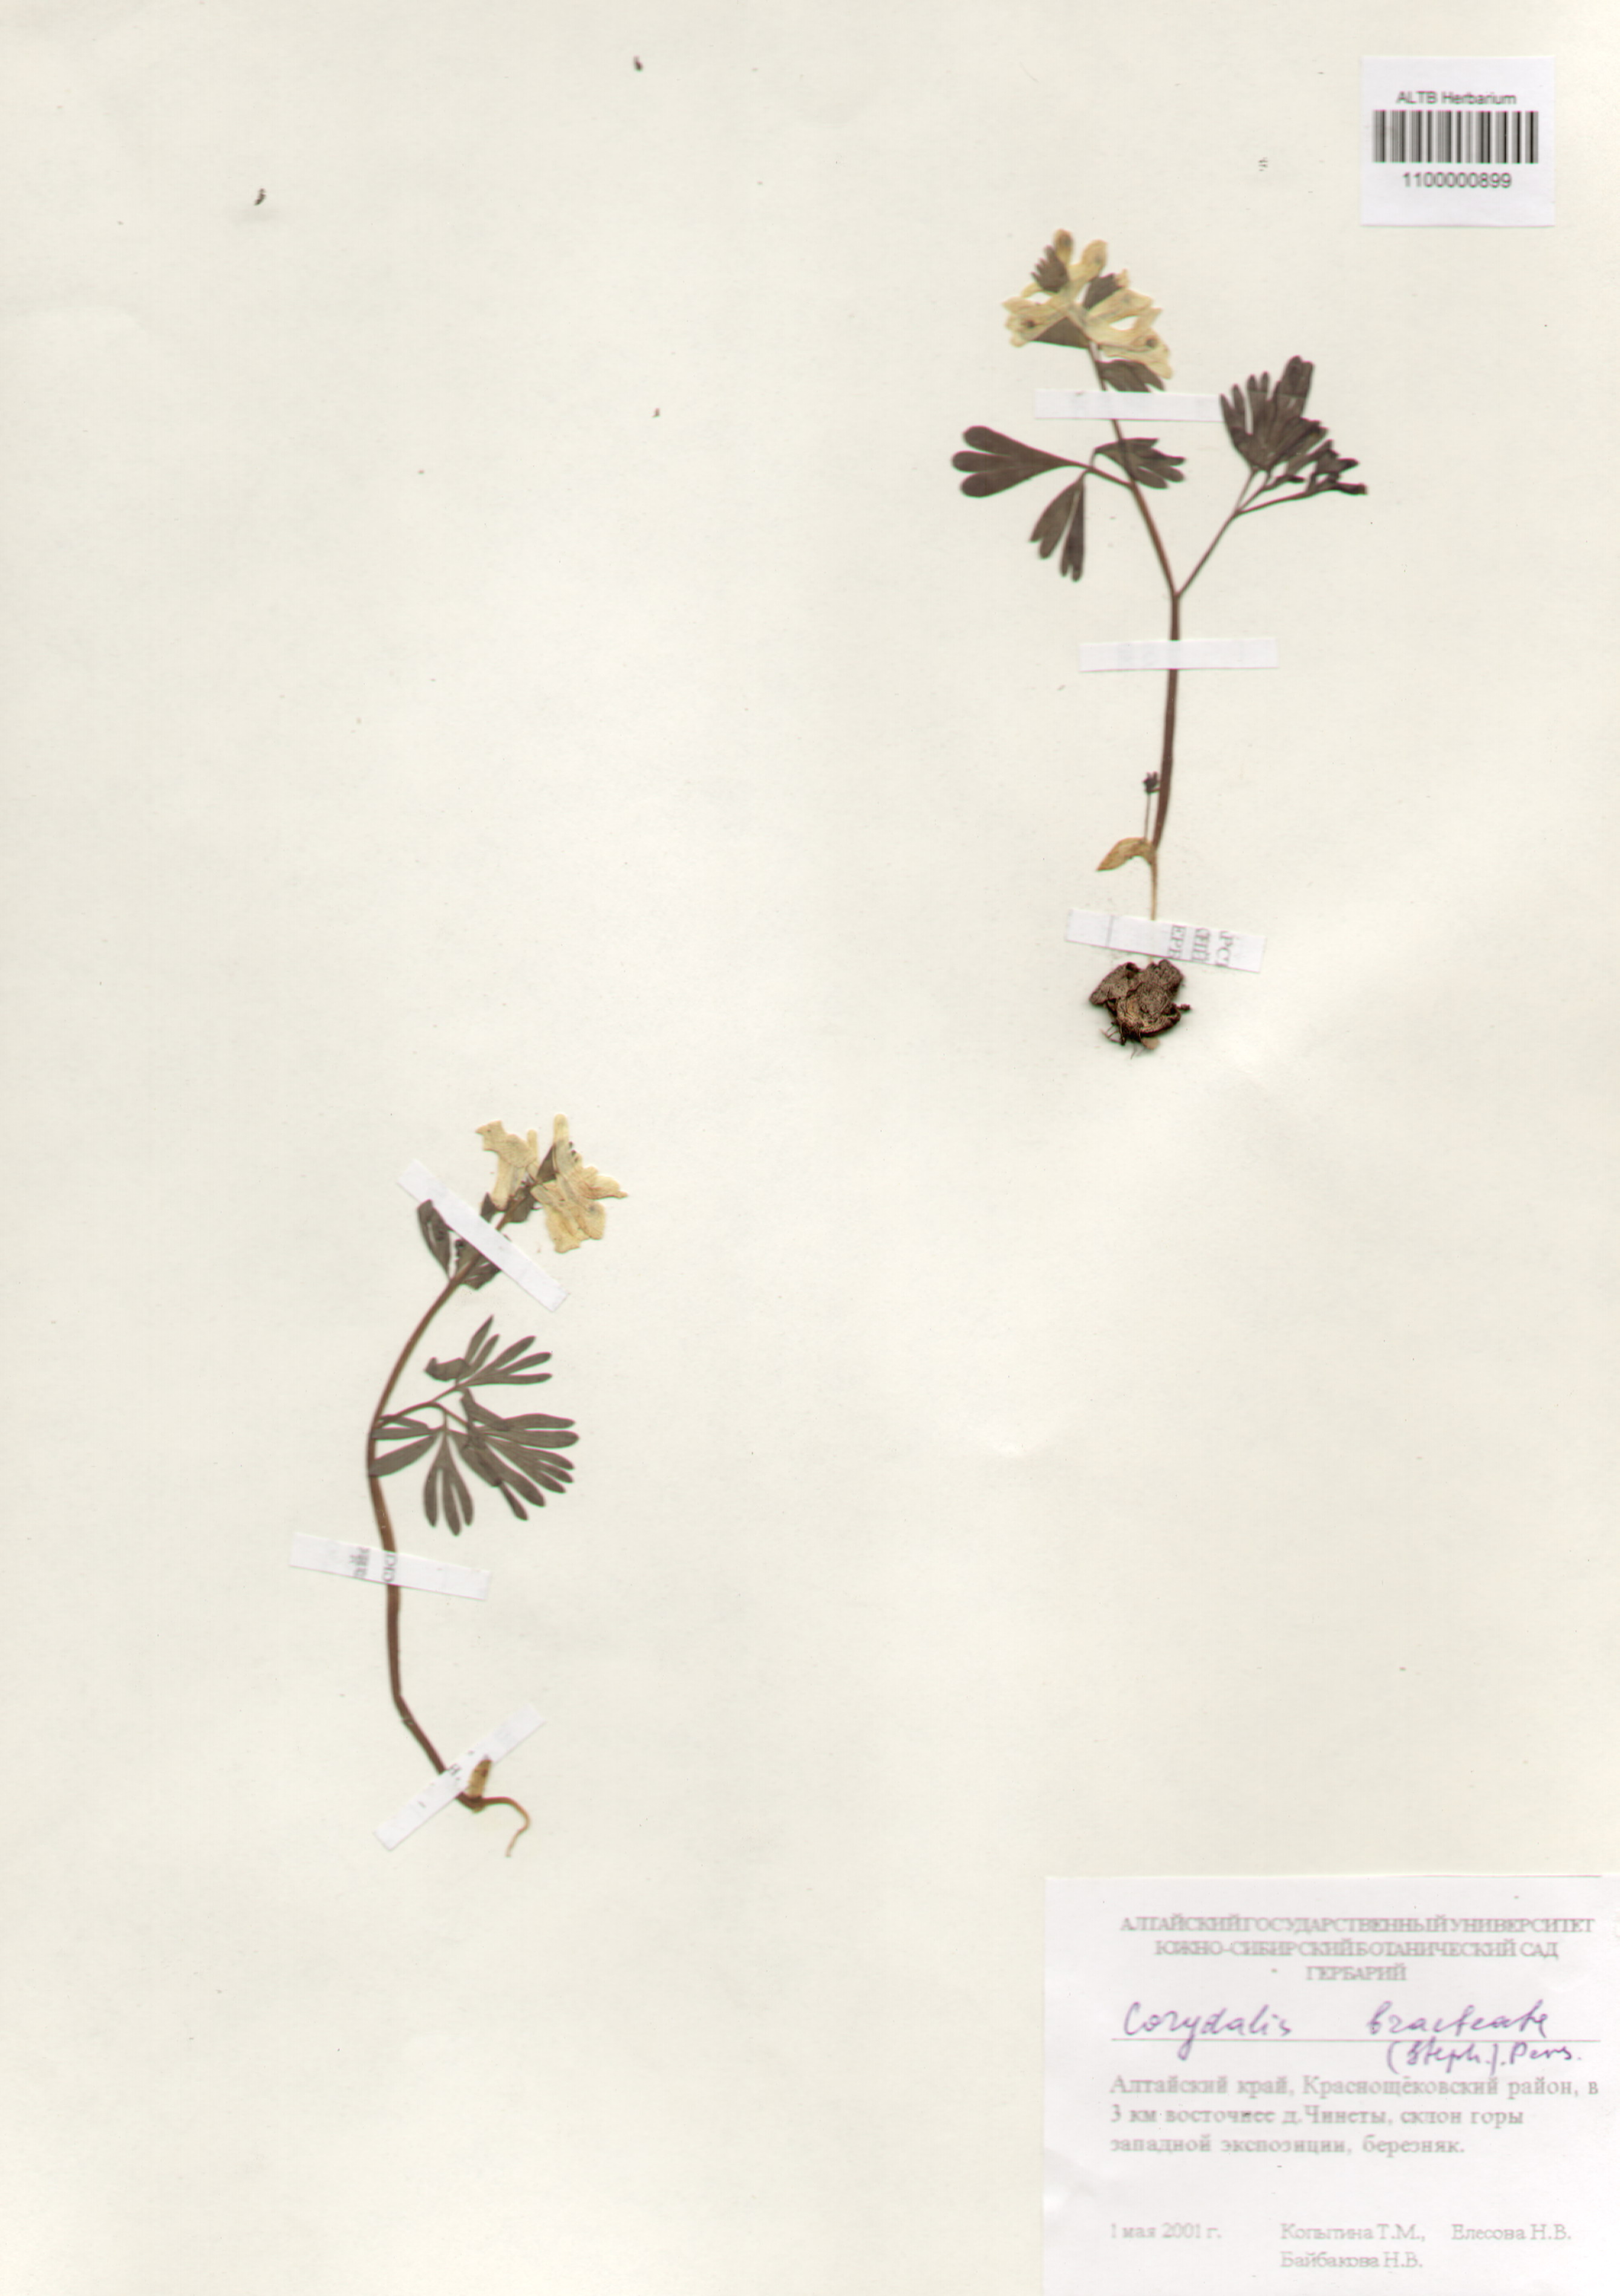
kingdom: Plantae
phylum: Tracheophyta
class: Magnoliopsida
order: Ranunculales
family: Papaveraceae
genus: Corydalis
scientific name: Corydalis bracteata
